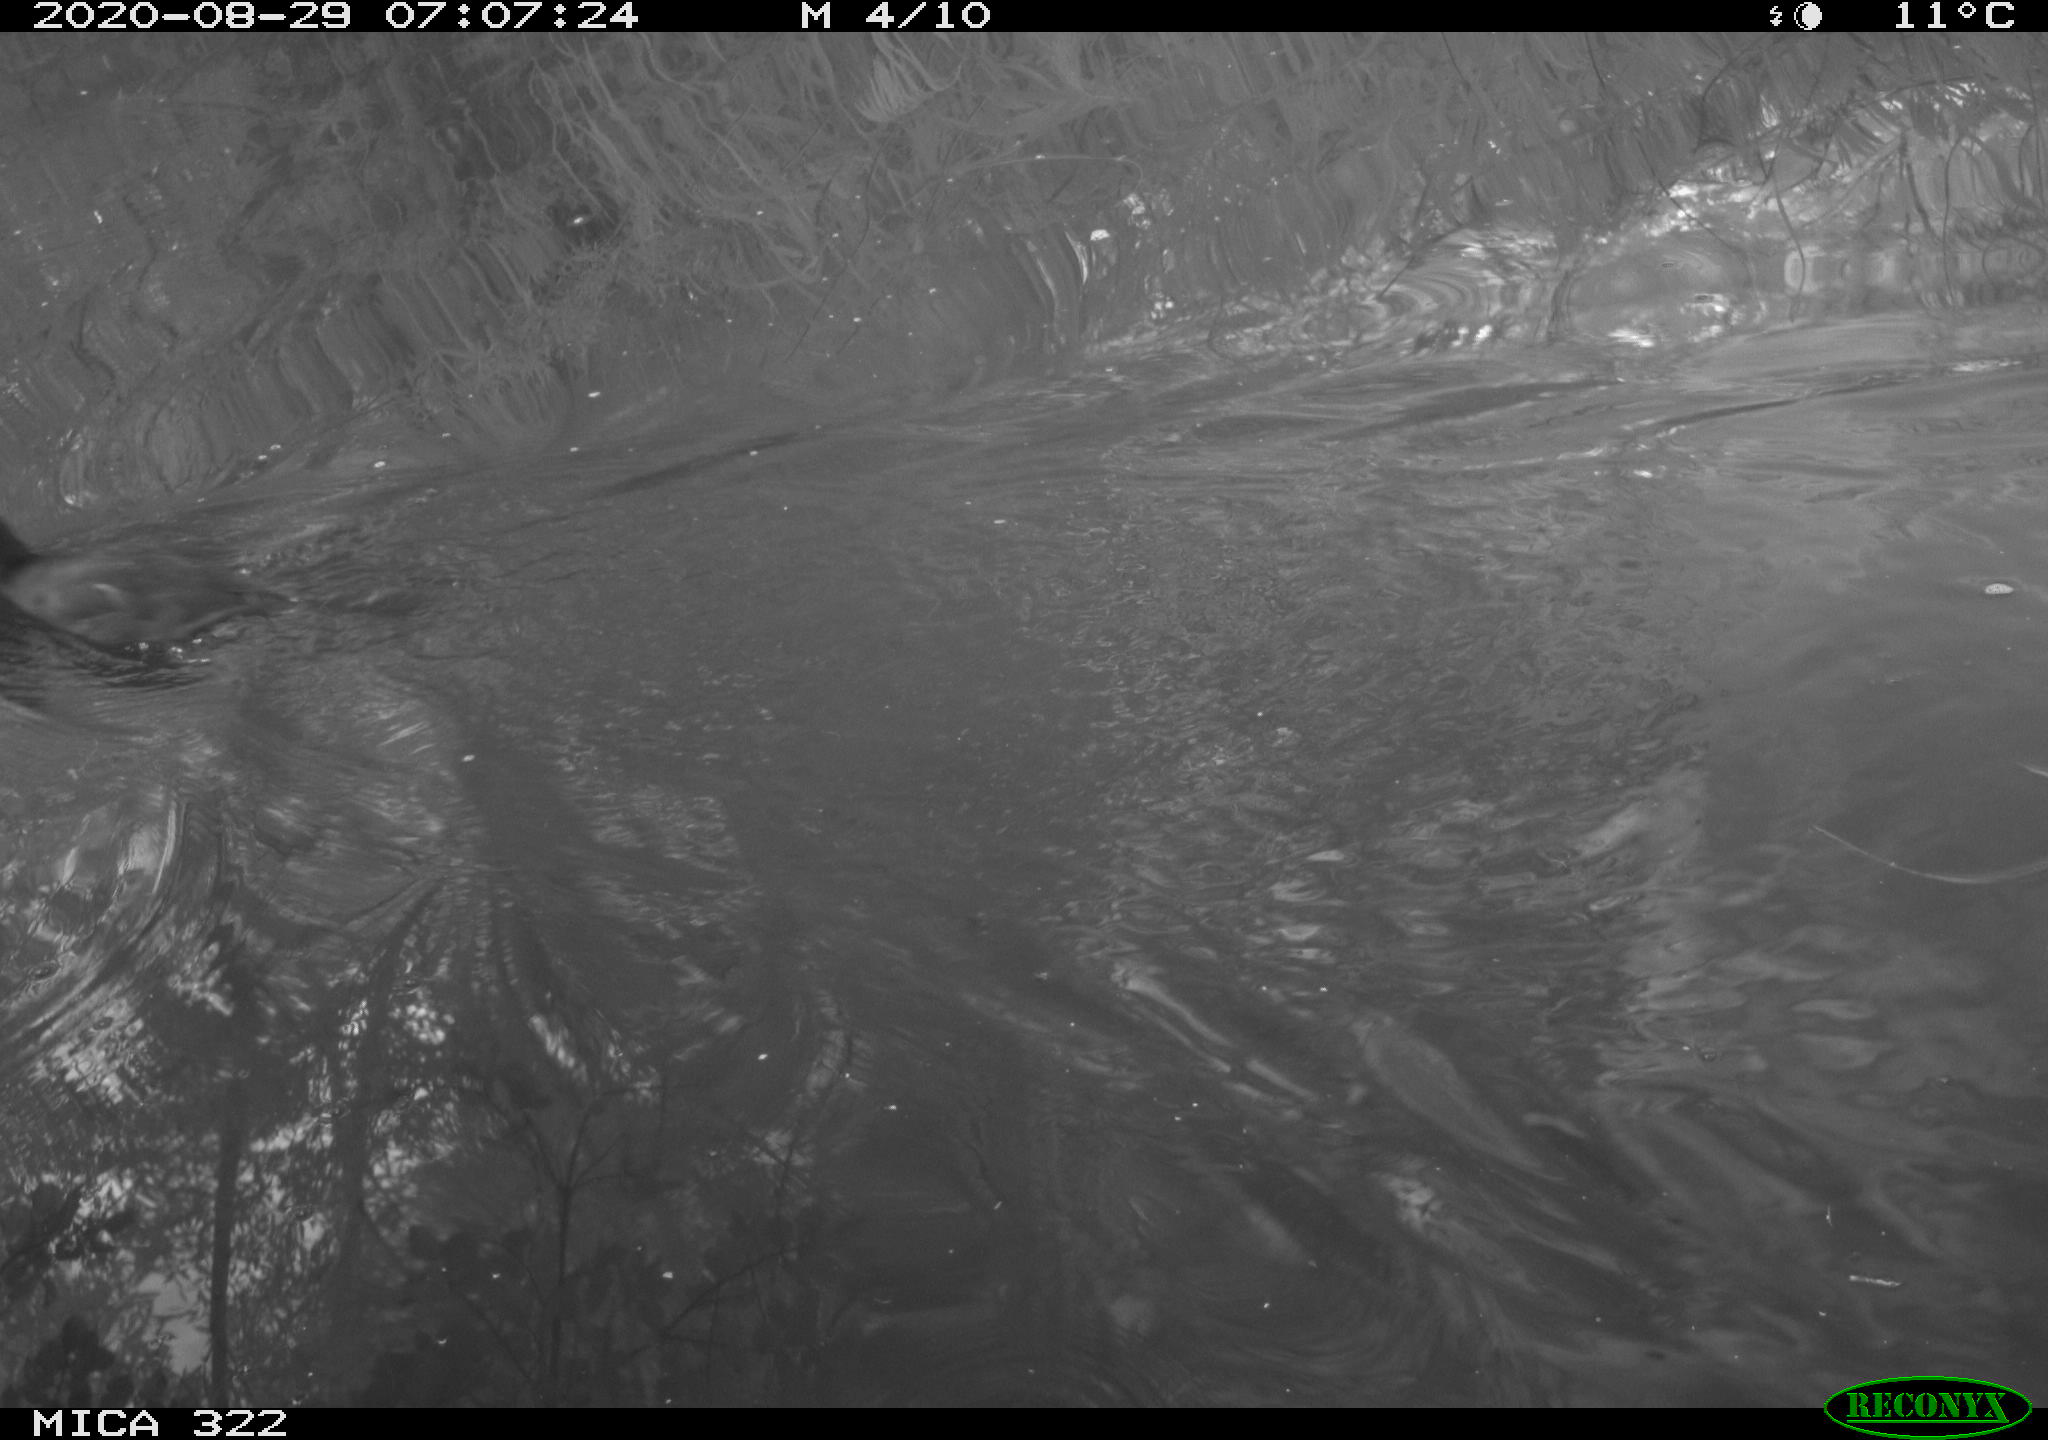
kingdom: Animalia
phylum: Chordata
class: Aves
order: Gruiformes
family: Rallidae
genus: Fulica
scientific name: Fulica atra
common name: Eurasian coot
